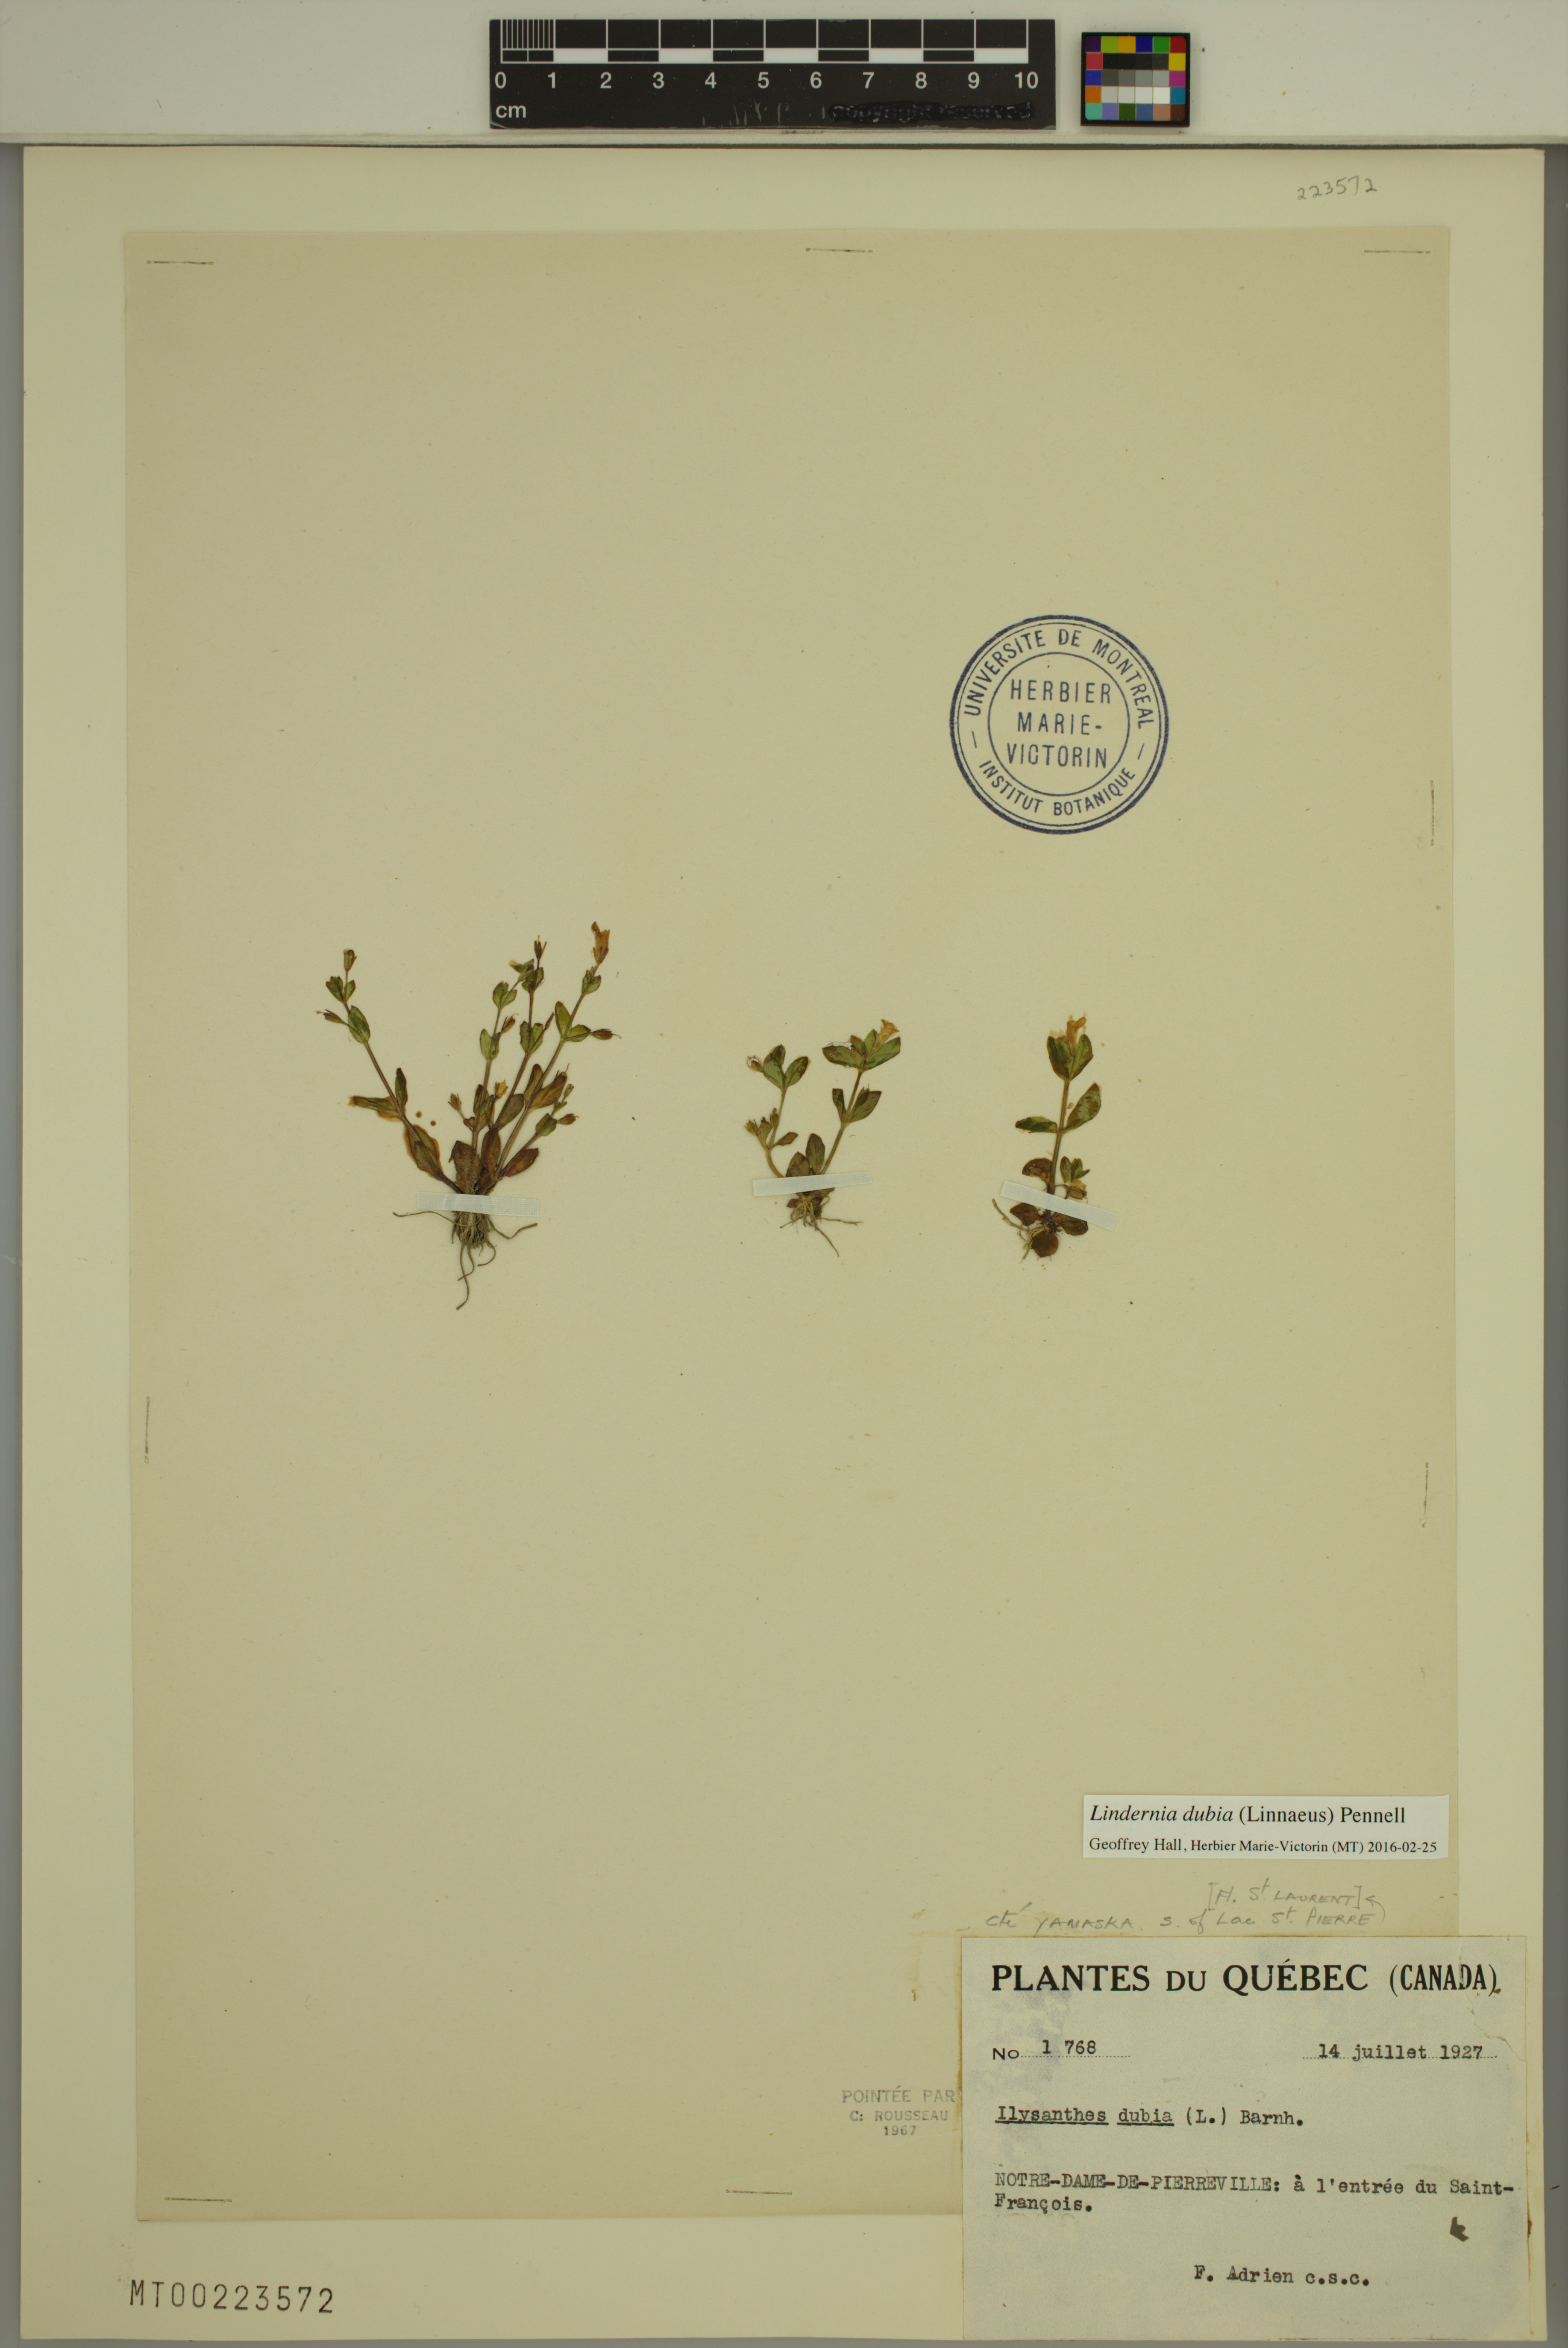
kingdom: Plantae
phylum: Tracheophyta
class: Magnoliopsida
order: Lamiales
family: Linderniaceae
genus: Lindernia
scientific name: Lindernia dubia
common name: Annual false pimpernel
